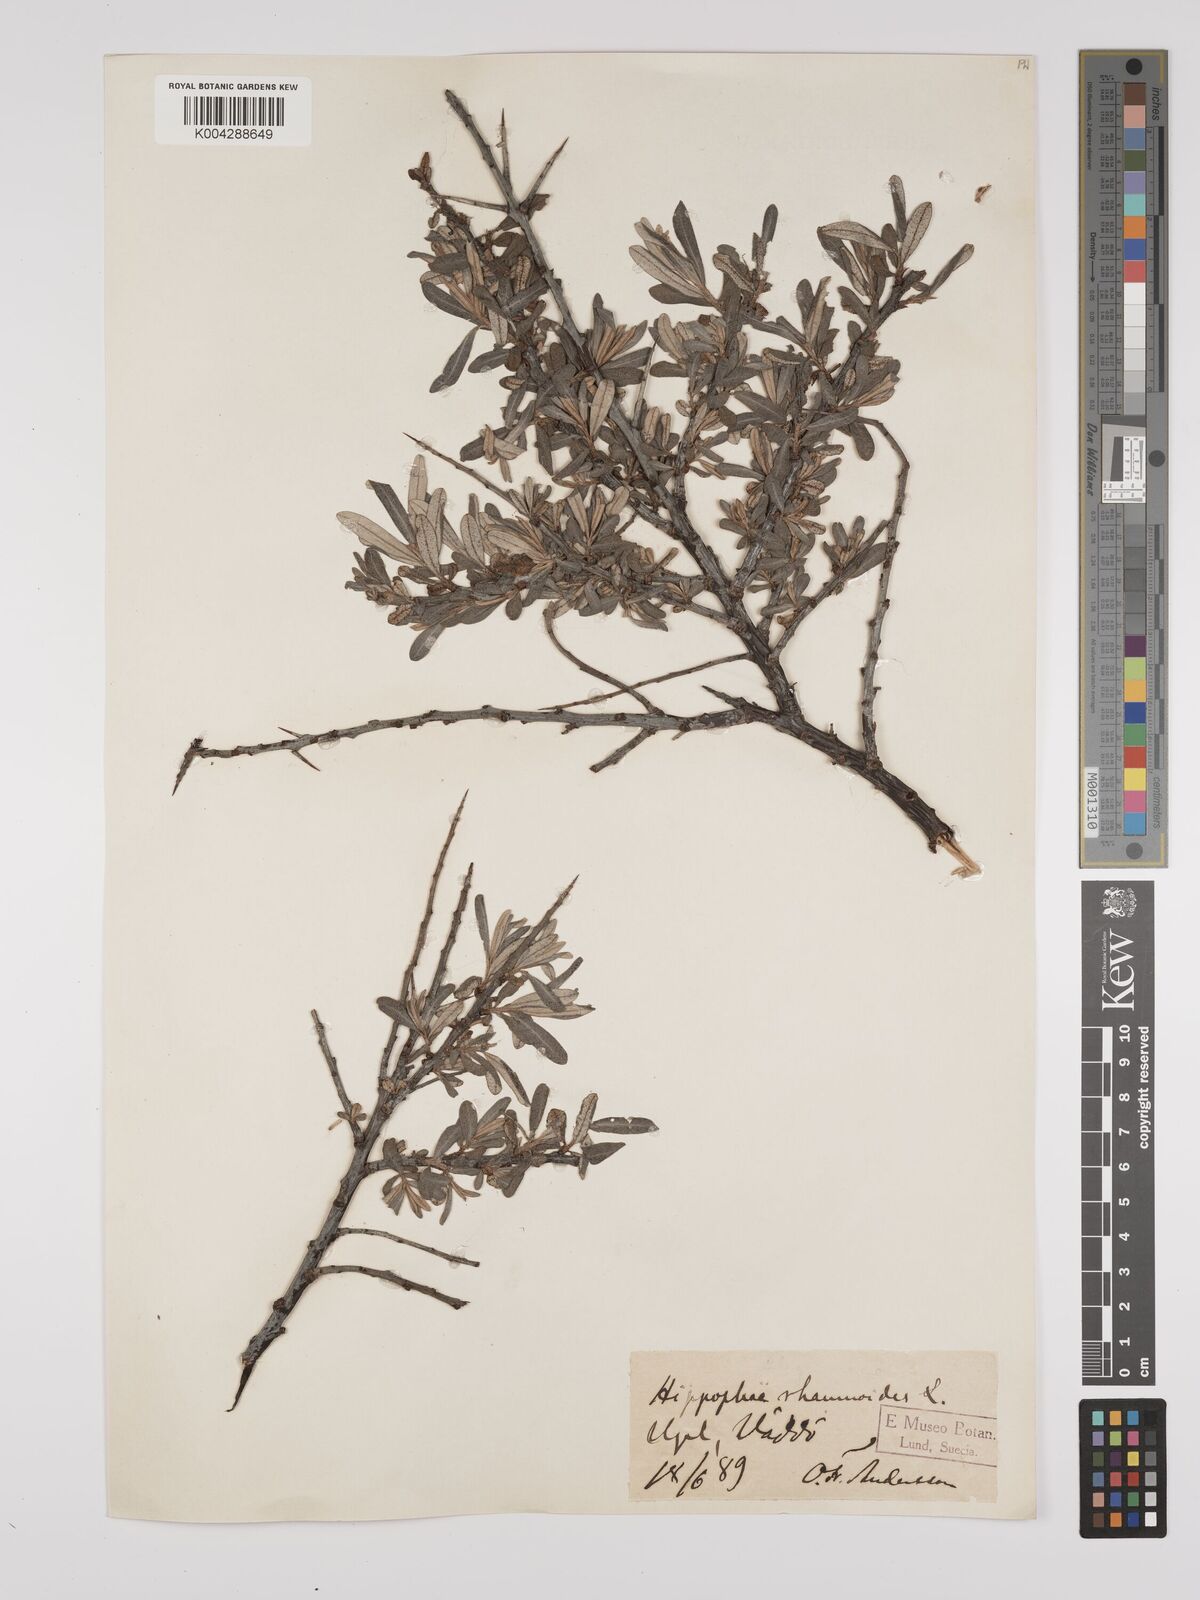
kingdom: Plantae
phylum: Tracheophyta
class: Magnoliopsida
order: Rosales
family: Elaeagnaceae
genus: Hippophae
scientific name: Hippophae rhamnoides
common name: Sea-buckthorn
